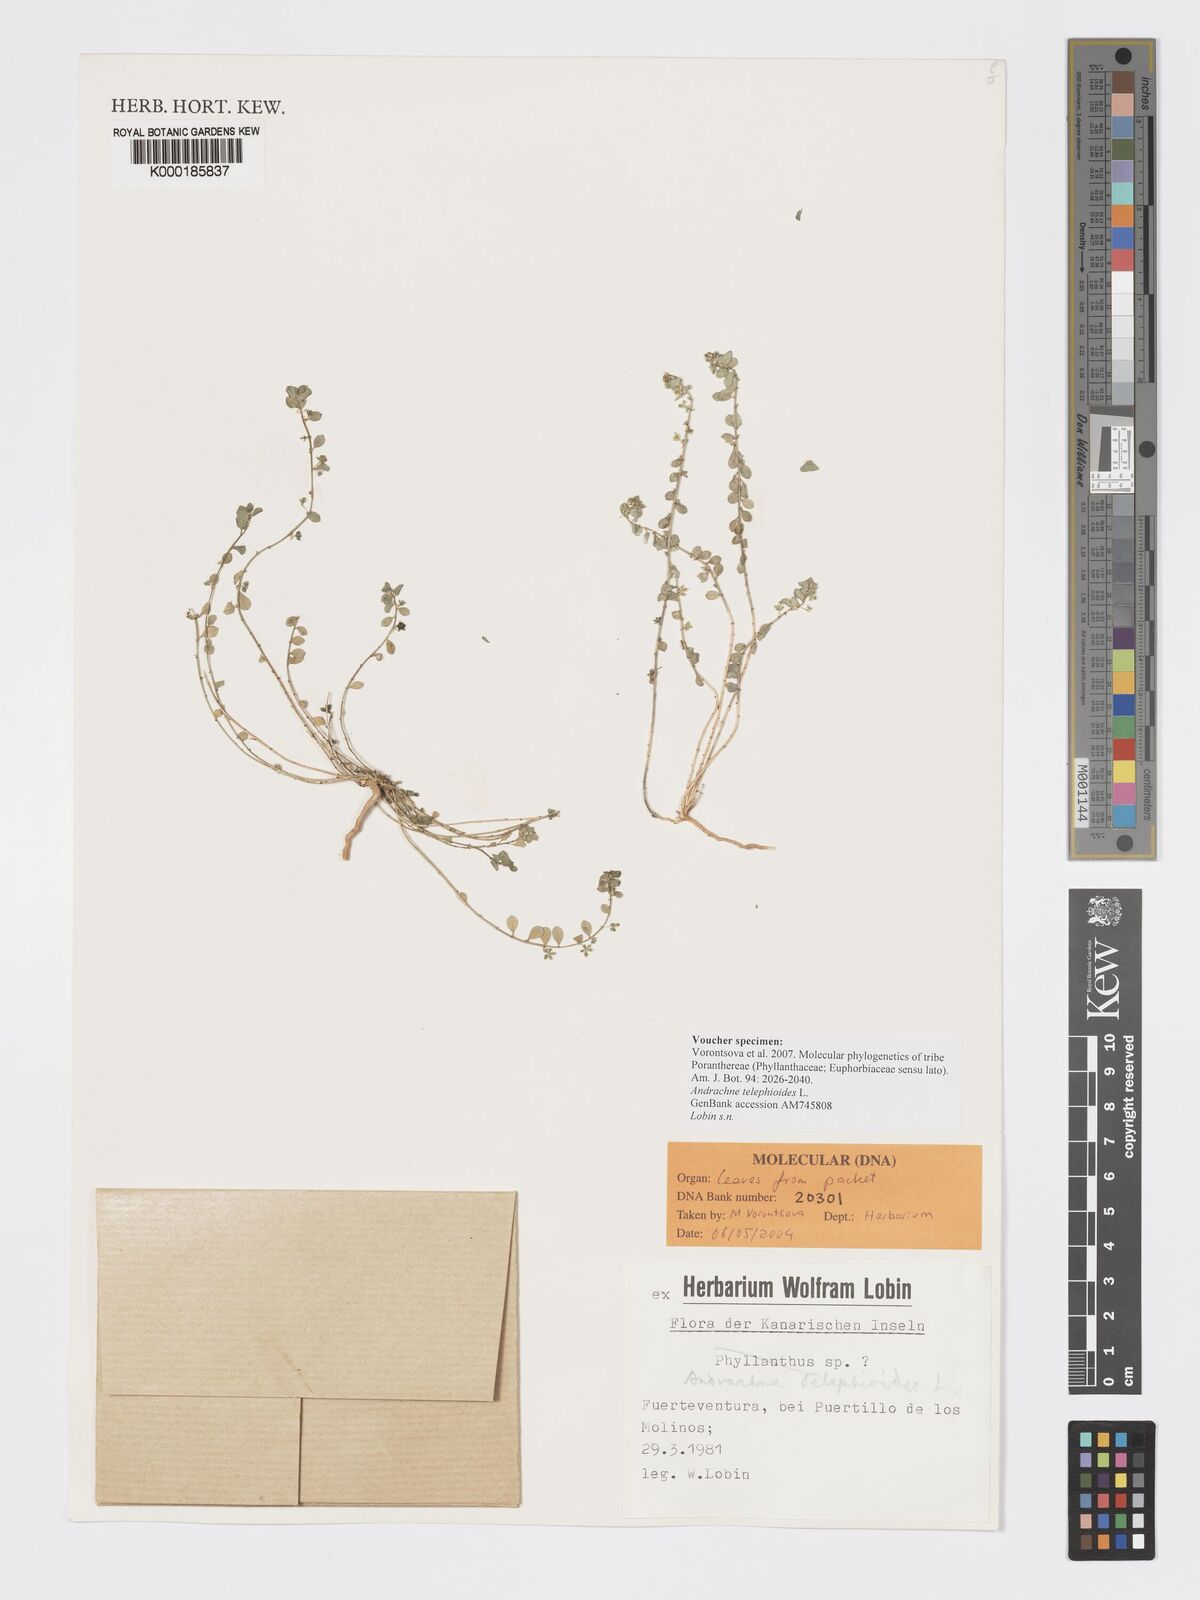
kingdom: Plantae
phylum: Tracheophyta
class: Magnoliopsida
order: Malpighiales
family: Phyllanthaceae
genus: Andrachne
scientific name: Andrachne telephioides
